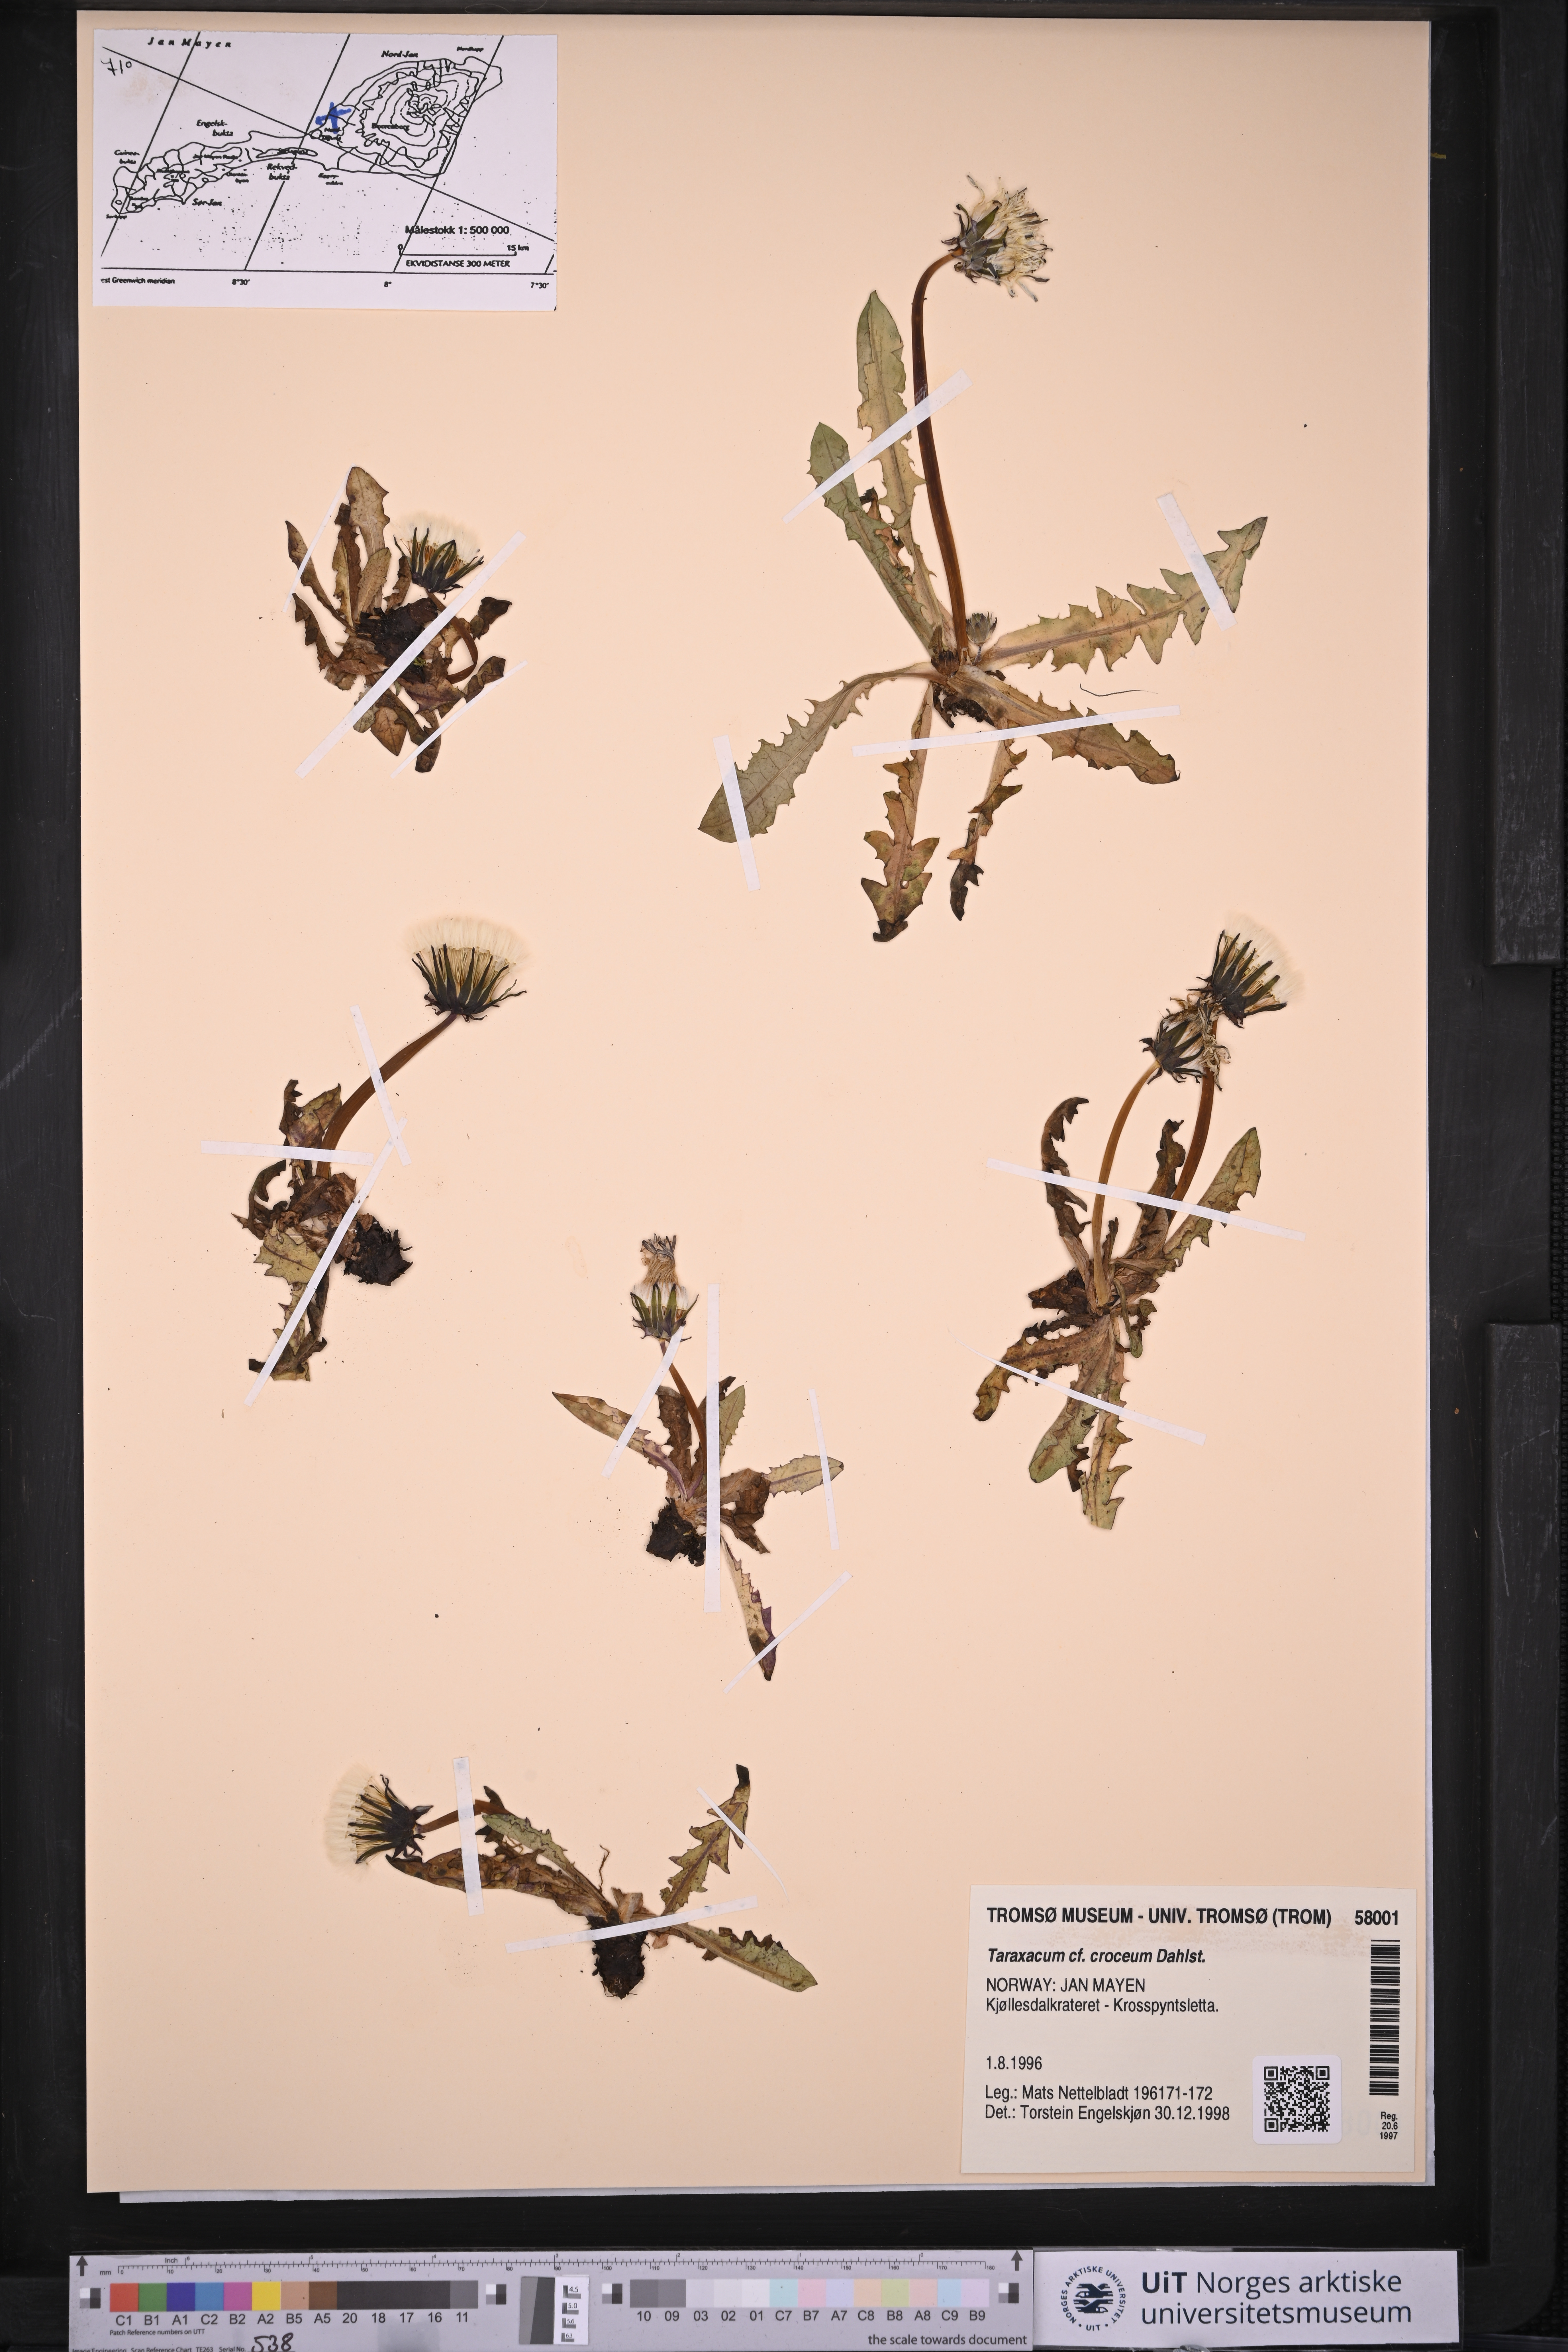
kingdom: Plantae
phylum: Tracheophyta
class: Magnoliopsida
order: Asterales
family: Asteraceae
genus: Taraxacum
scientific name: Taraxacum croceum
